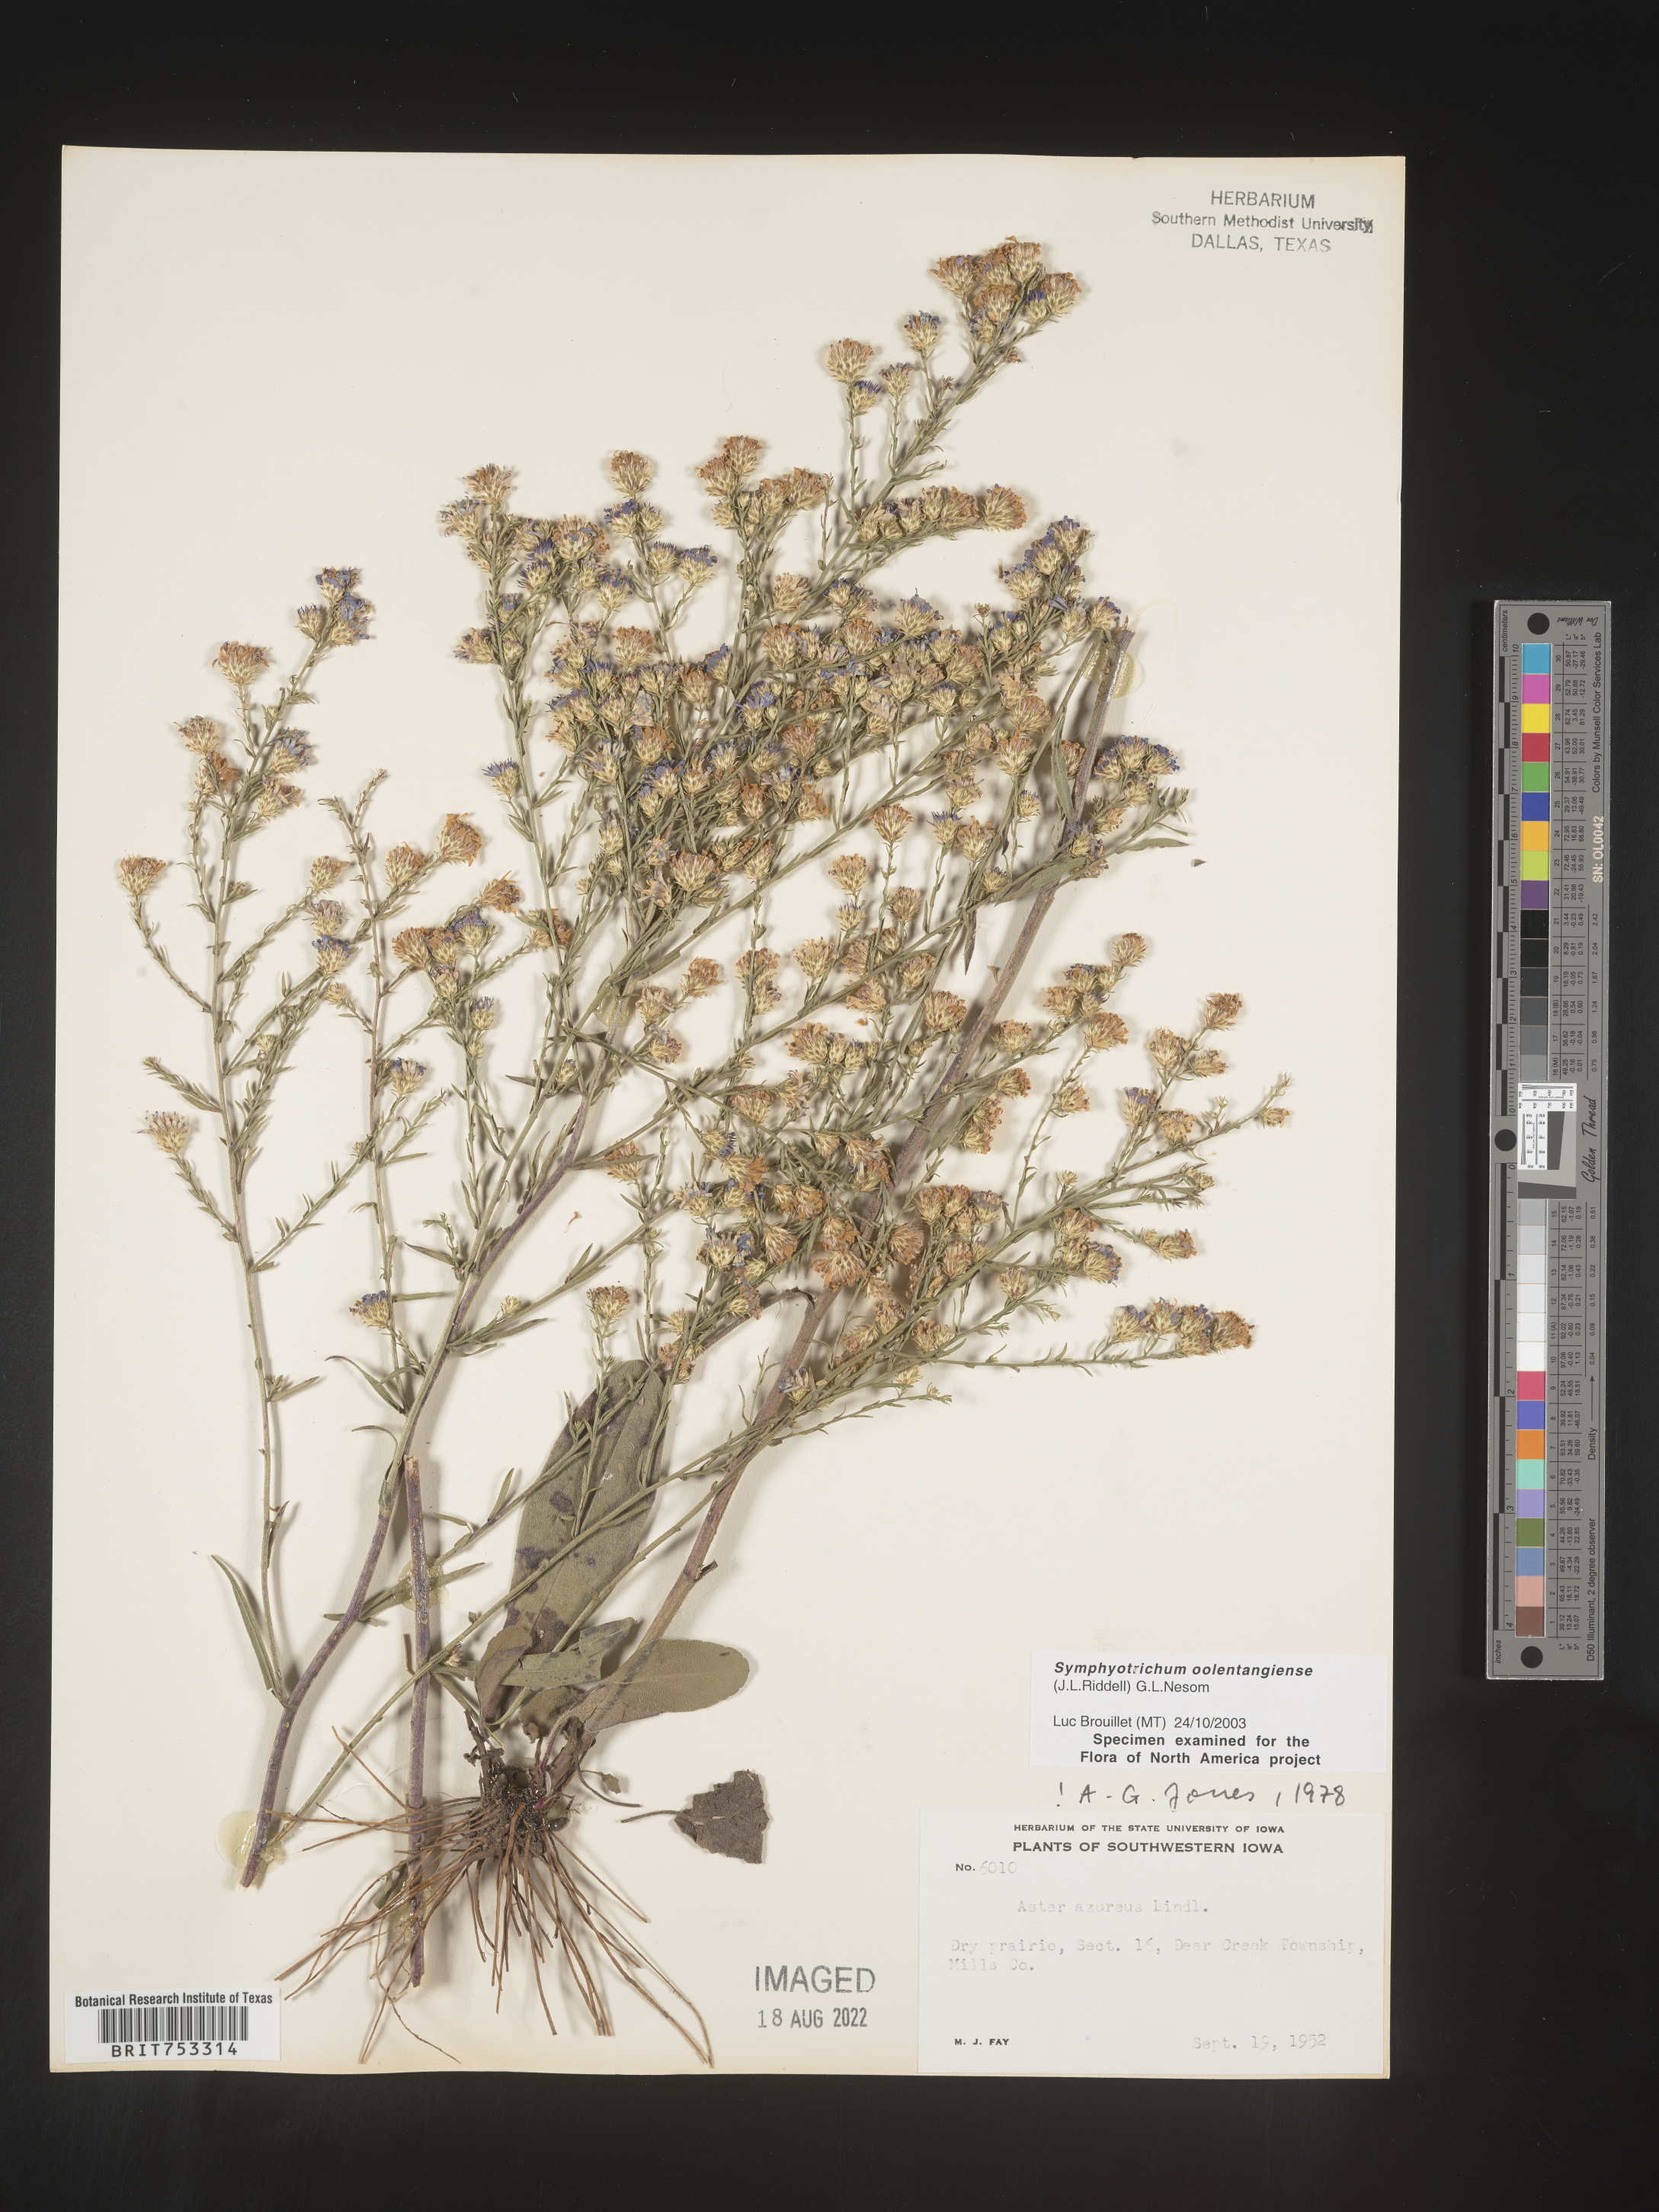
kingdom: Plantae
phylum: Tracheophyta
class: Magnoliopsida
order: Asterales
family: Asteraceae
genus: Symphyotrichum
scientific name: Symphyotrichum oolentangiense
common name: Azure aster
